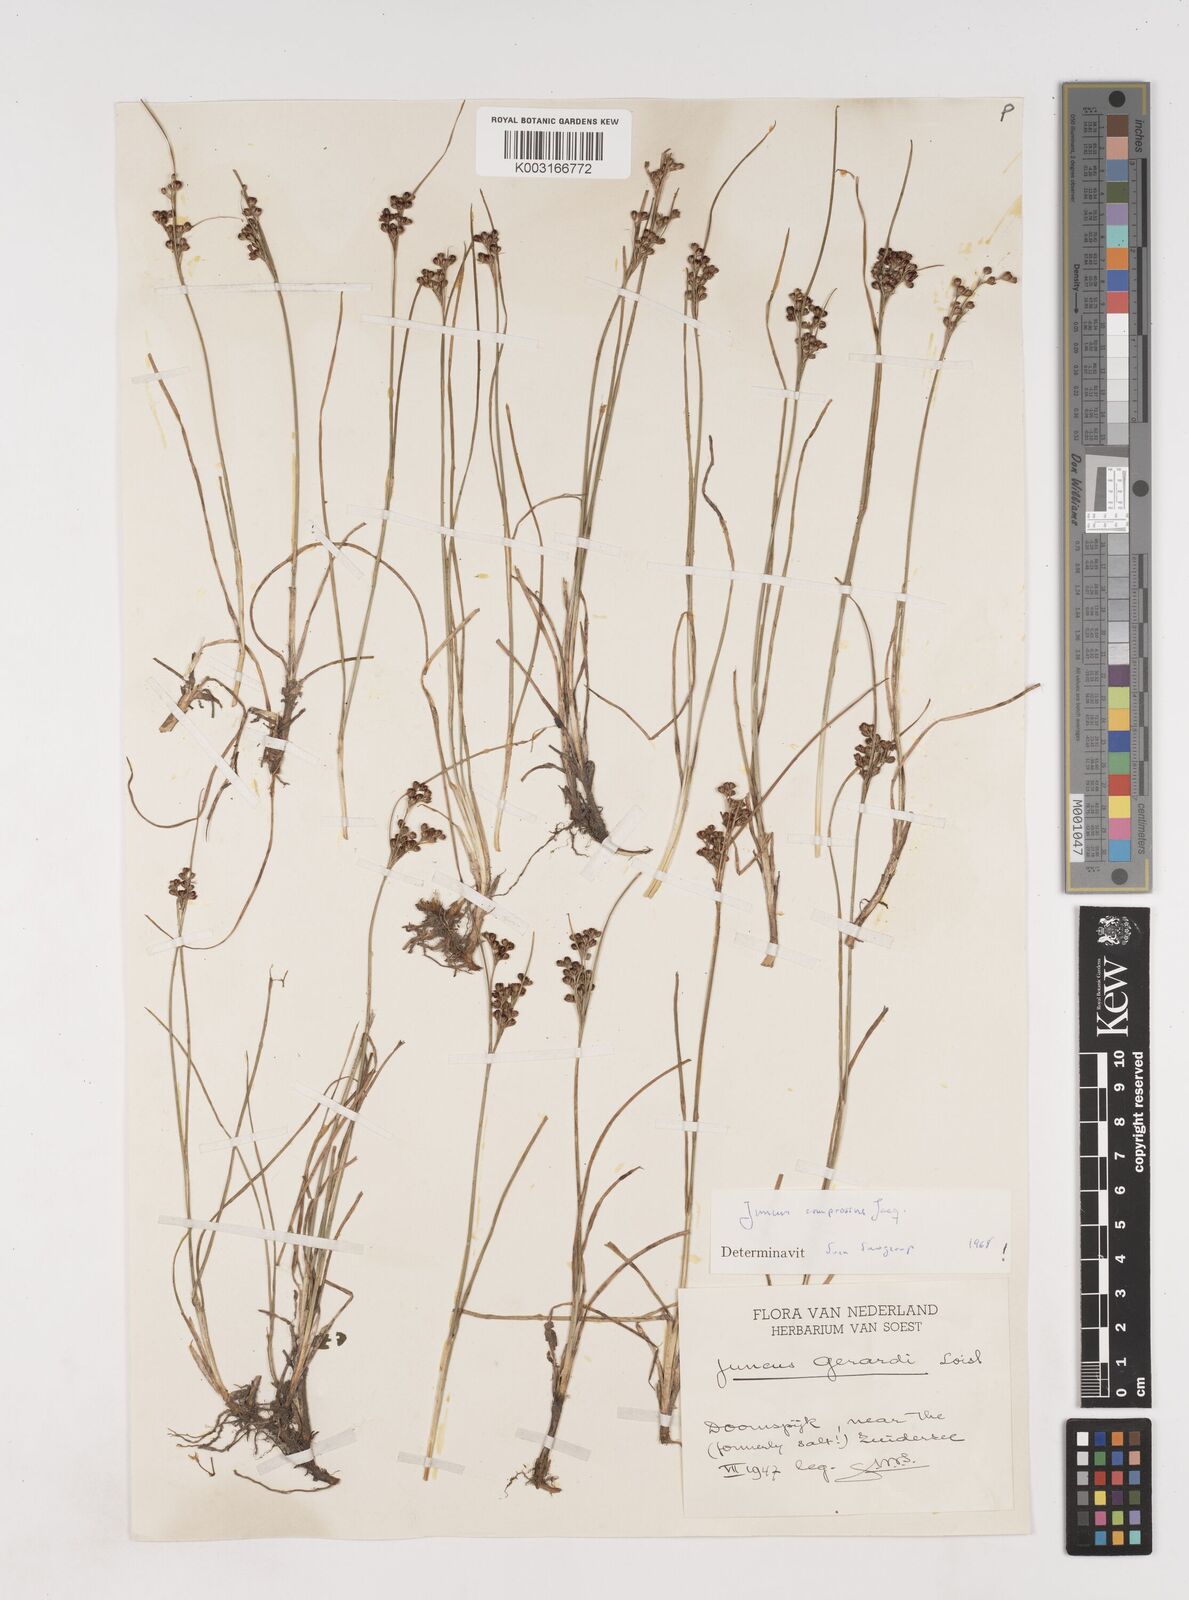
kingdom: Plantae
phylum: Tracheophyta
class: Liliopsida
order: Poales
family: Juncaceae
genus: Juncus
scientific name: Juncus
